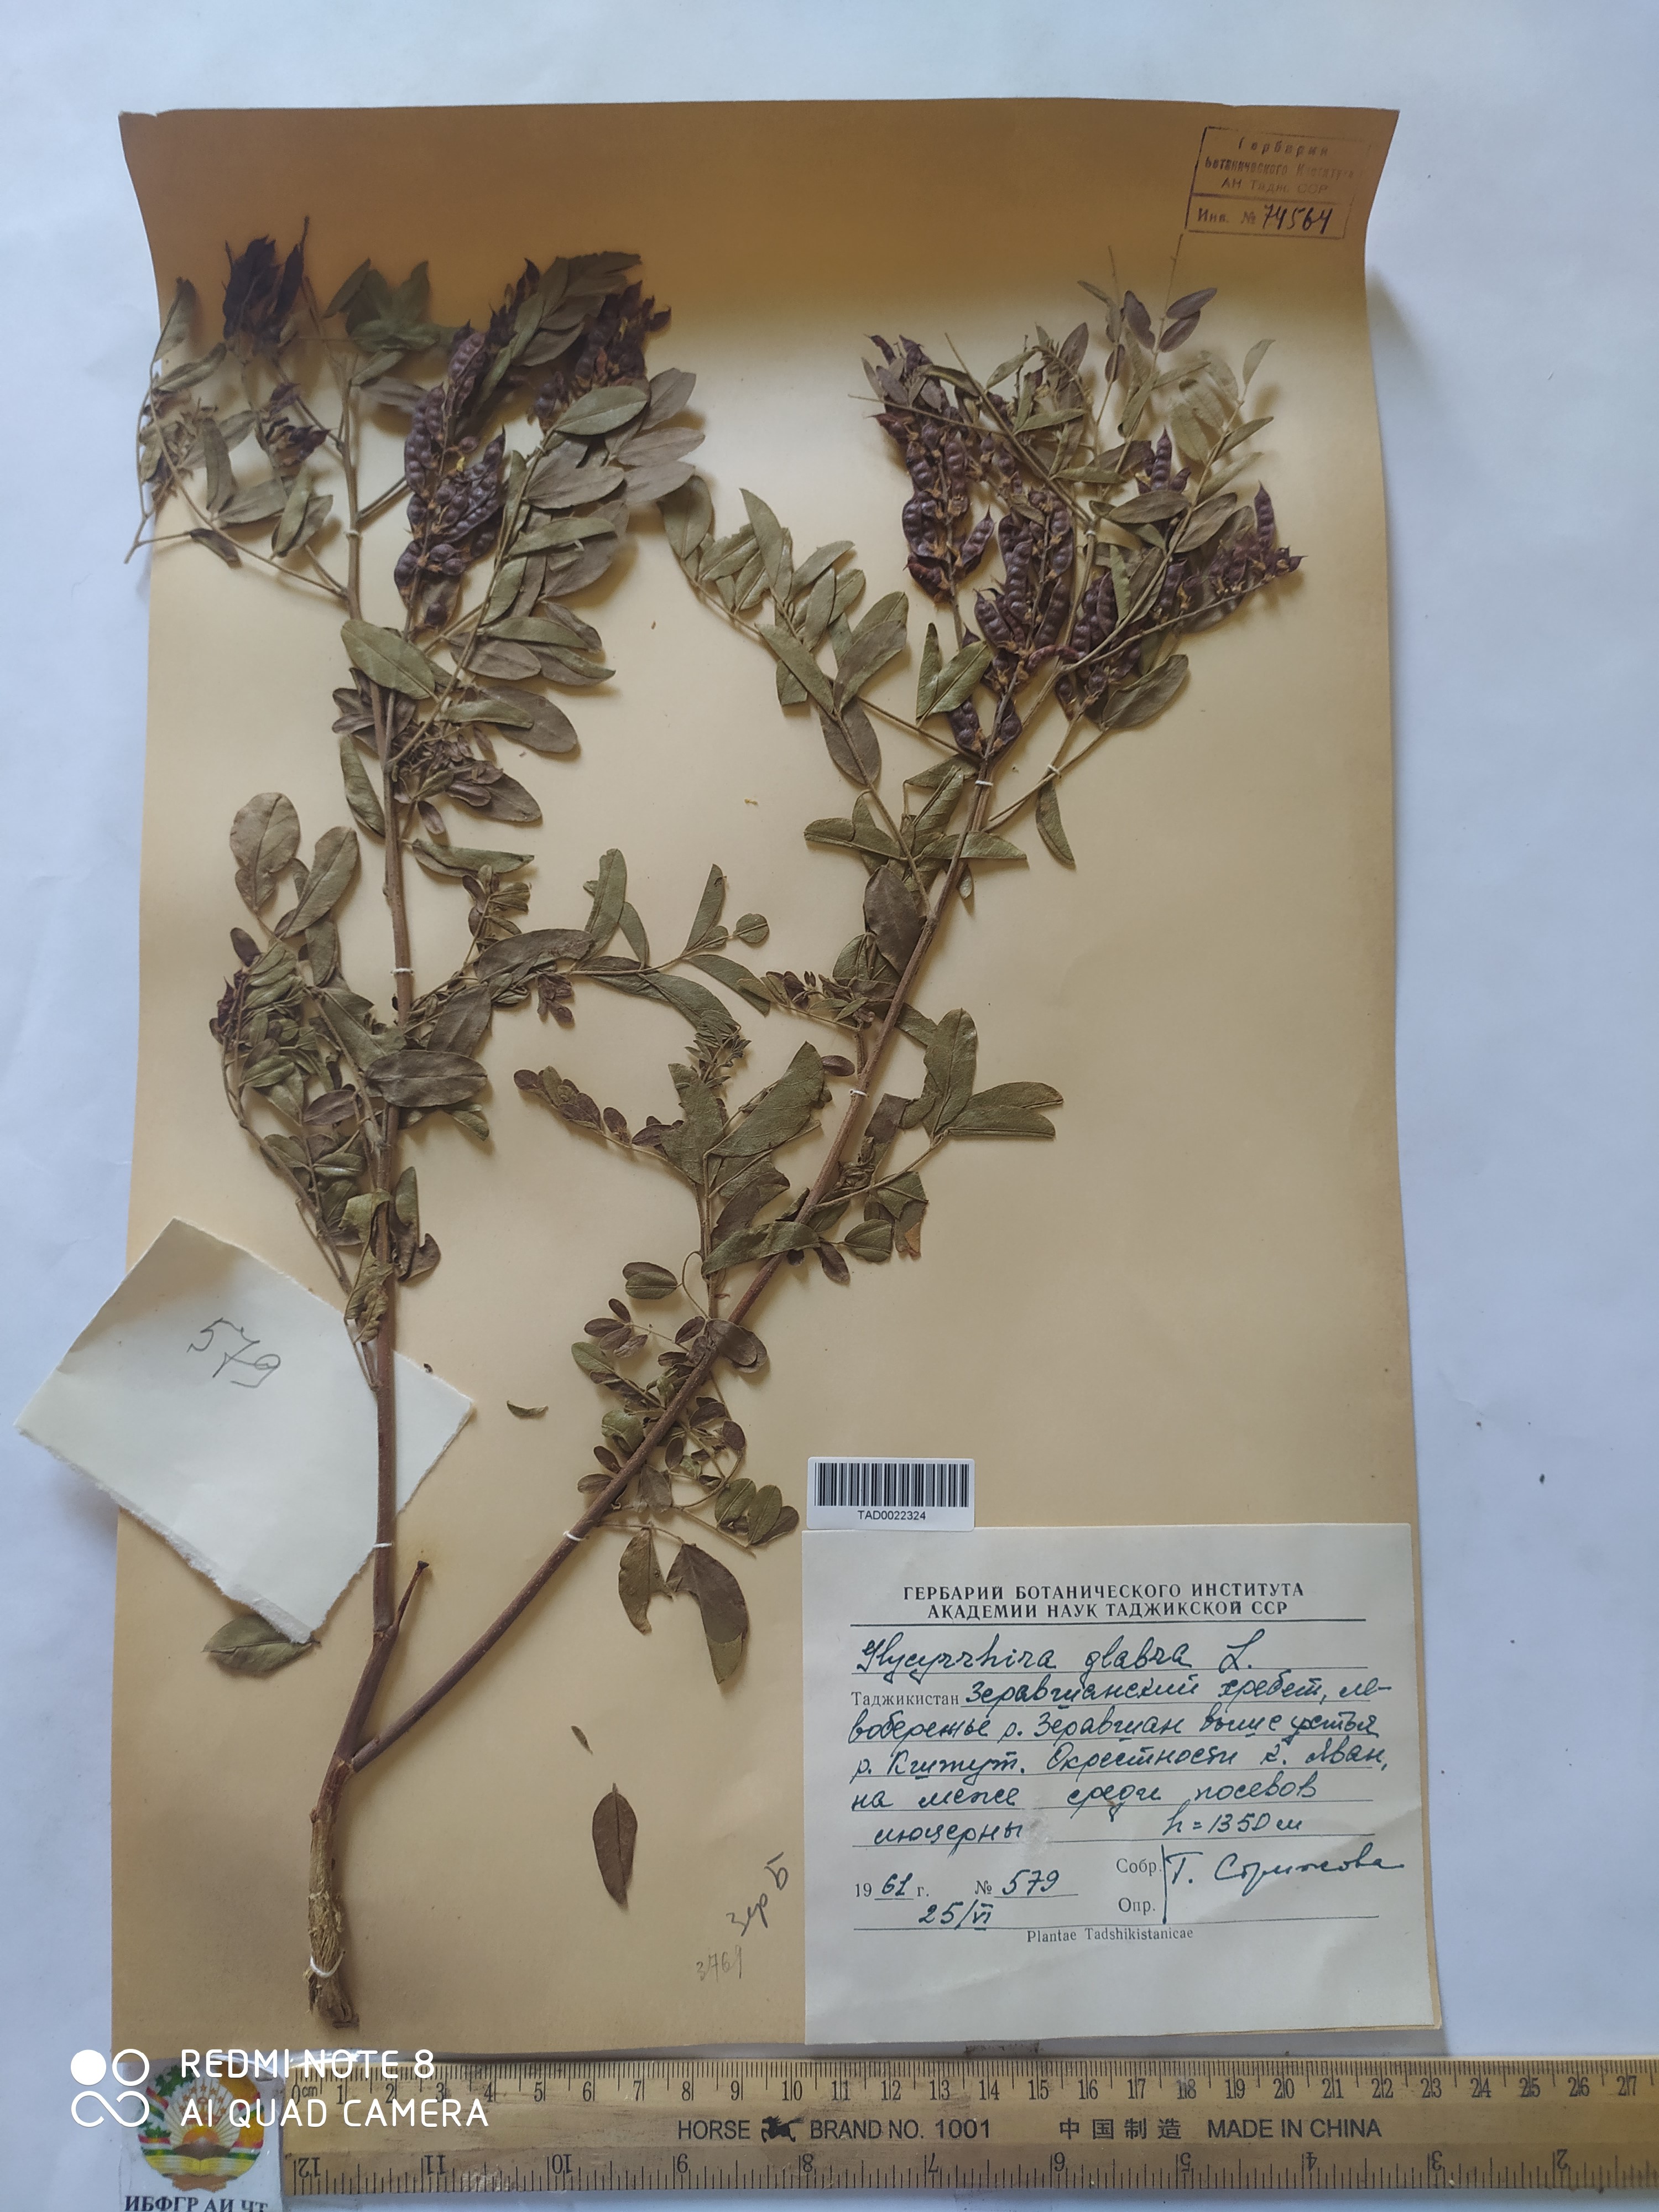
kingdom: Plantae
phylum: Tracheophyta
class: Magnoliopsida
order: Fabales
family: Fabaceae
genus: Glycyrrhiza
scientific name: Glycyrrhiza glabra
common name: Liquorice
